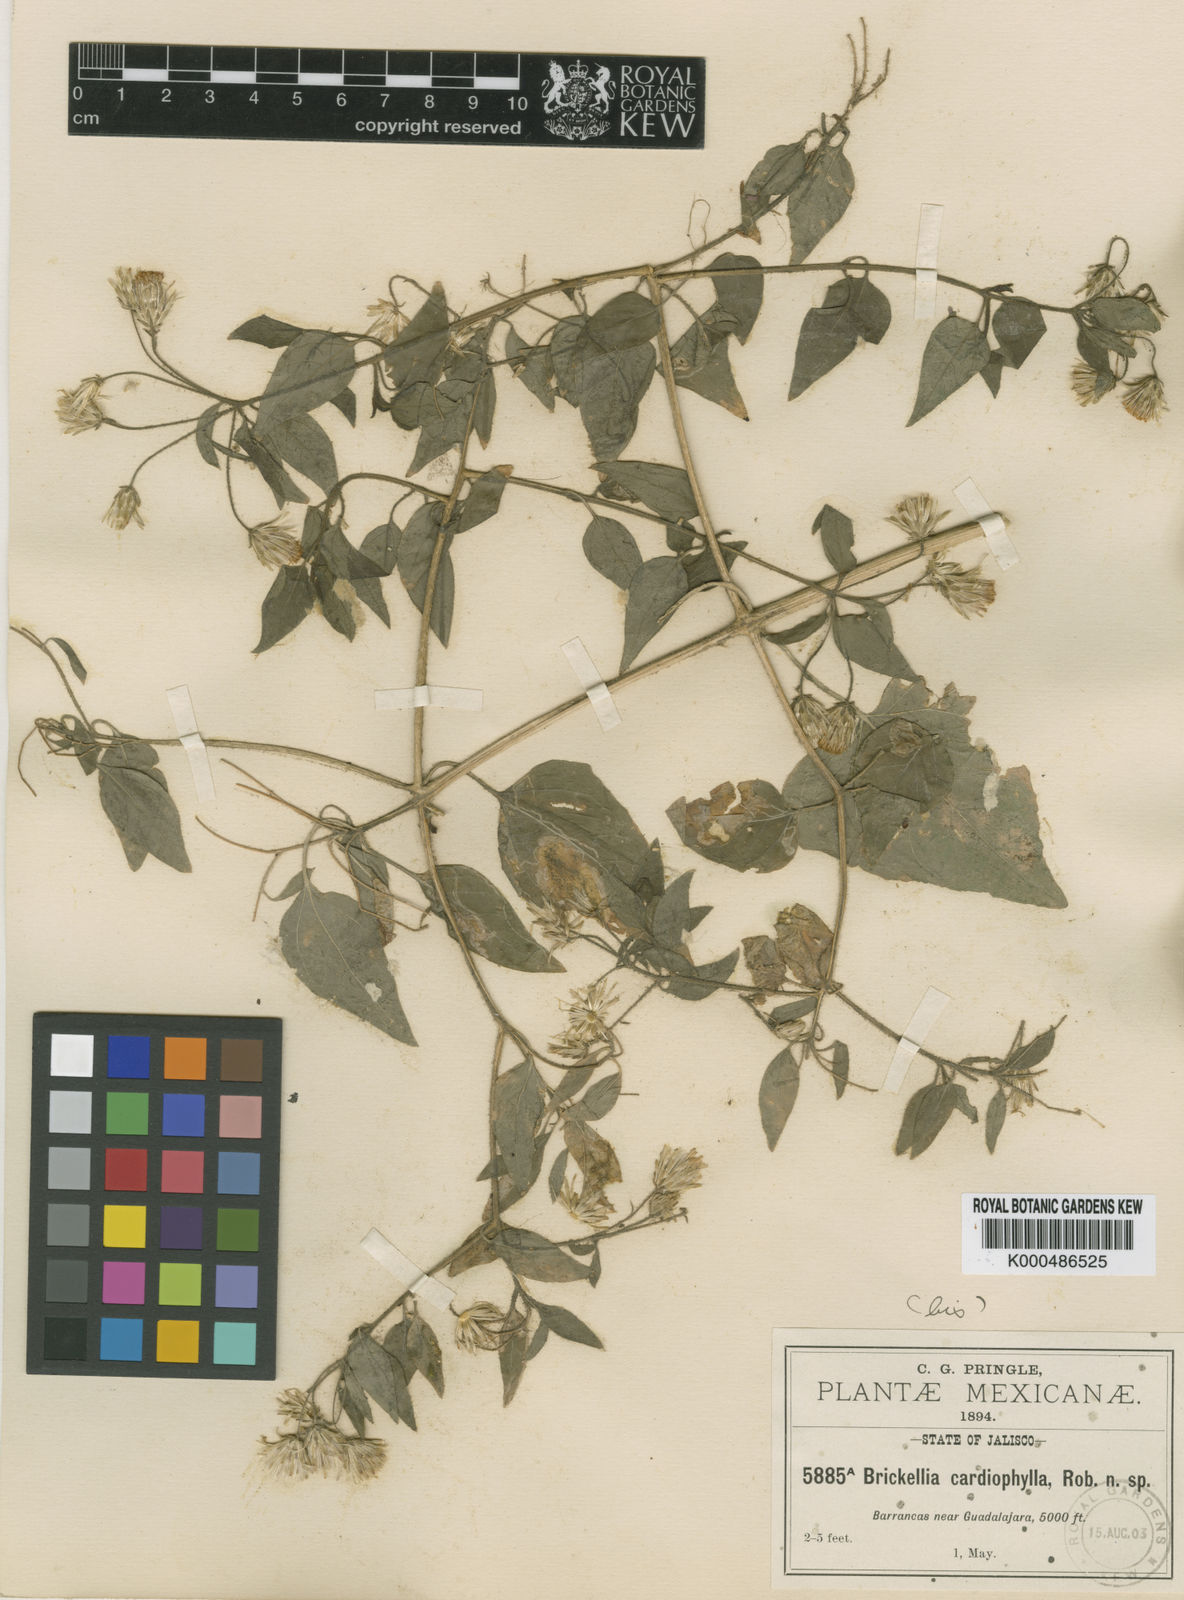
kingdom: Plantae
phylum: Tracheophyta
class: Magnoliopsida
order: Asterales
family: Asteraceae
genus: Brickellia
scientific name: Brickellia cardiophylla
